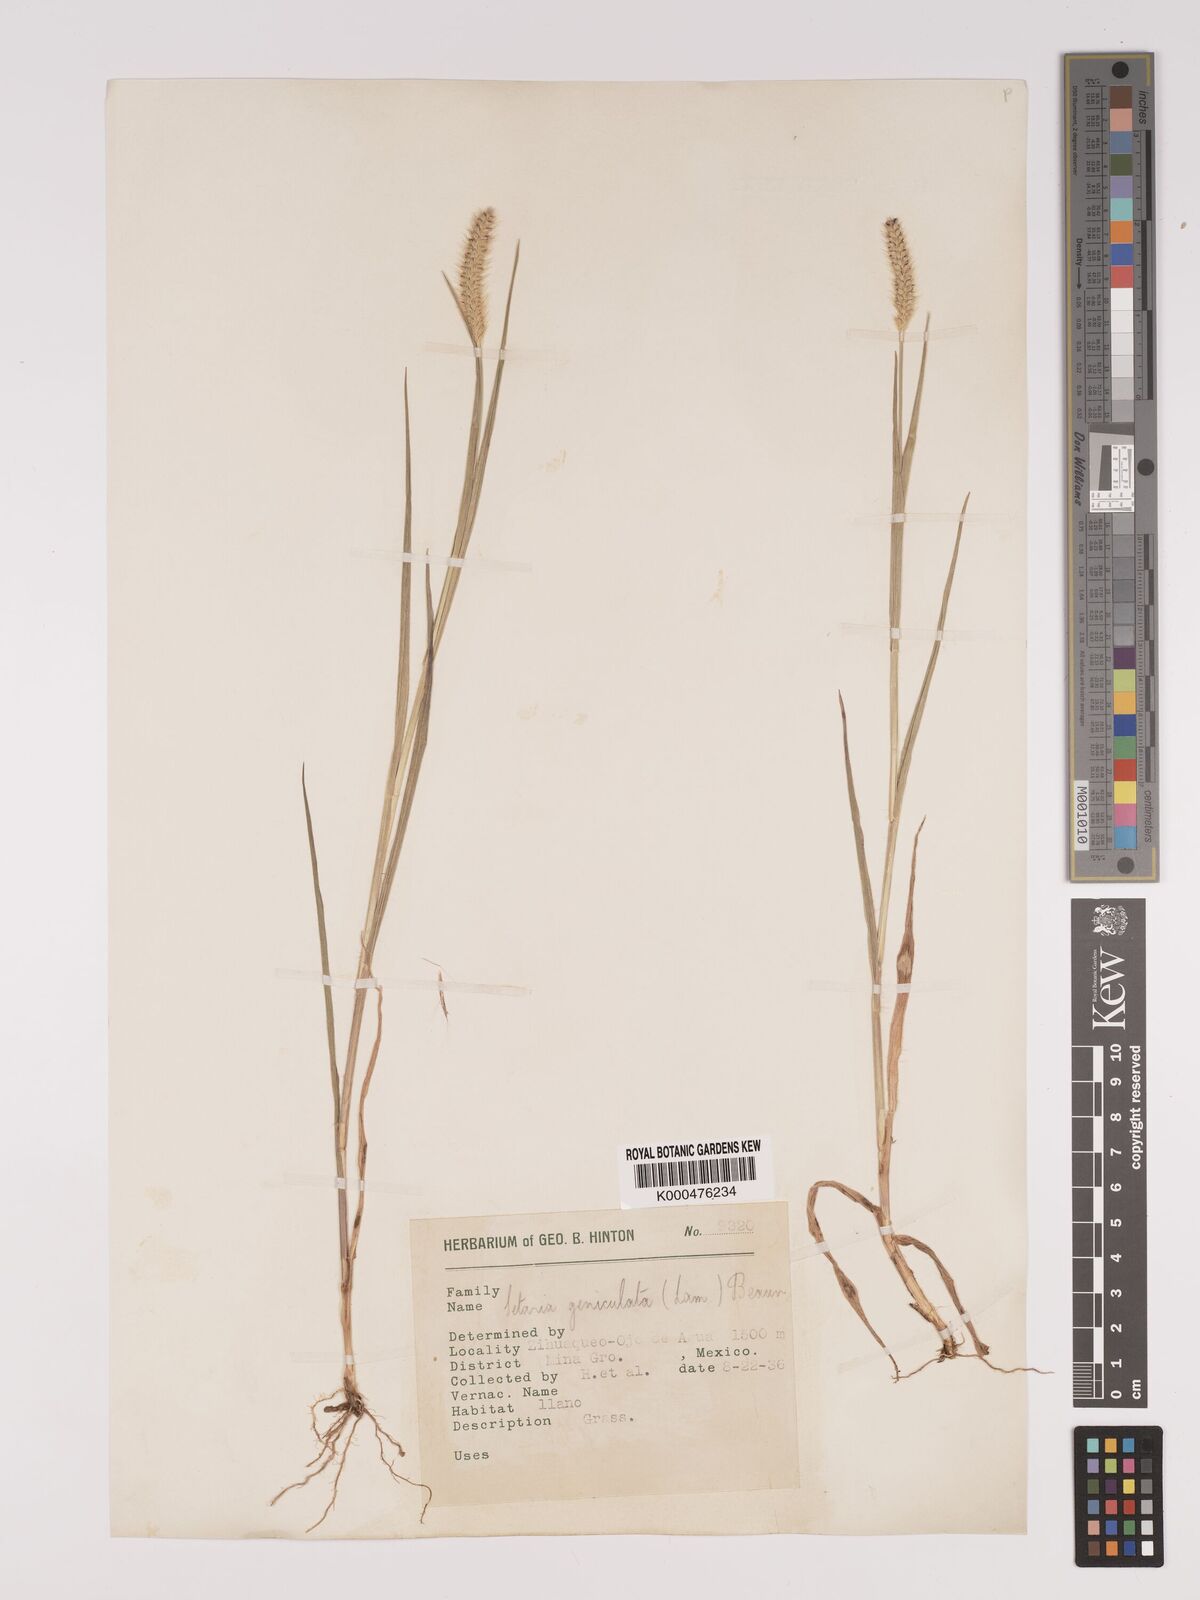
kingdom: Plantae
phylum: Tracheophyta
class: Liliopsida
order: Poales
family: Poaceae
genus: Setaria
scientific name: Setaria
